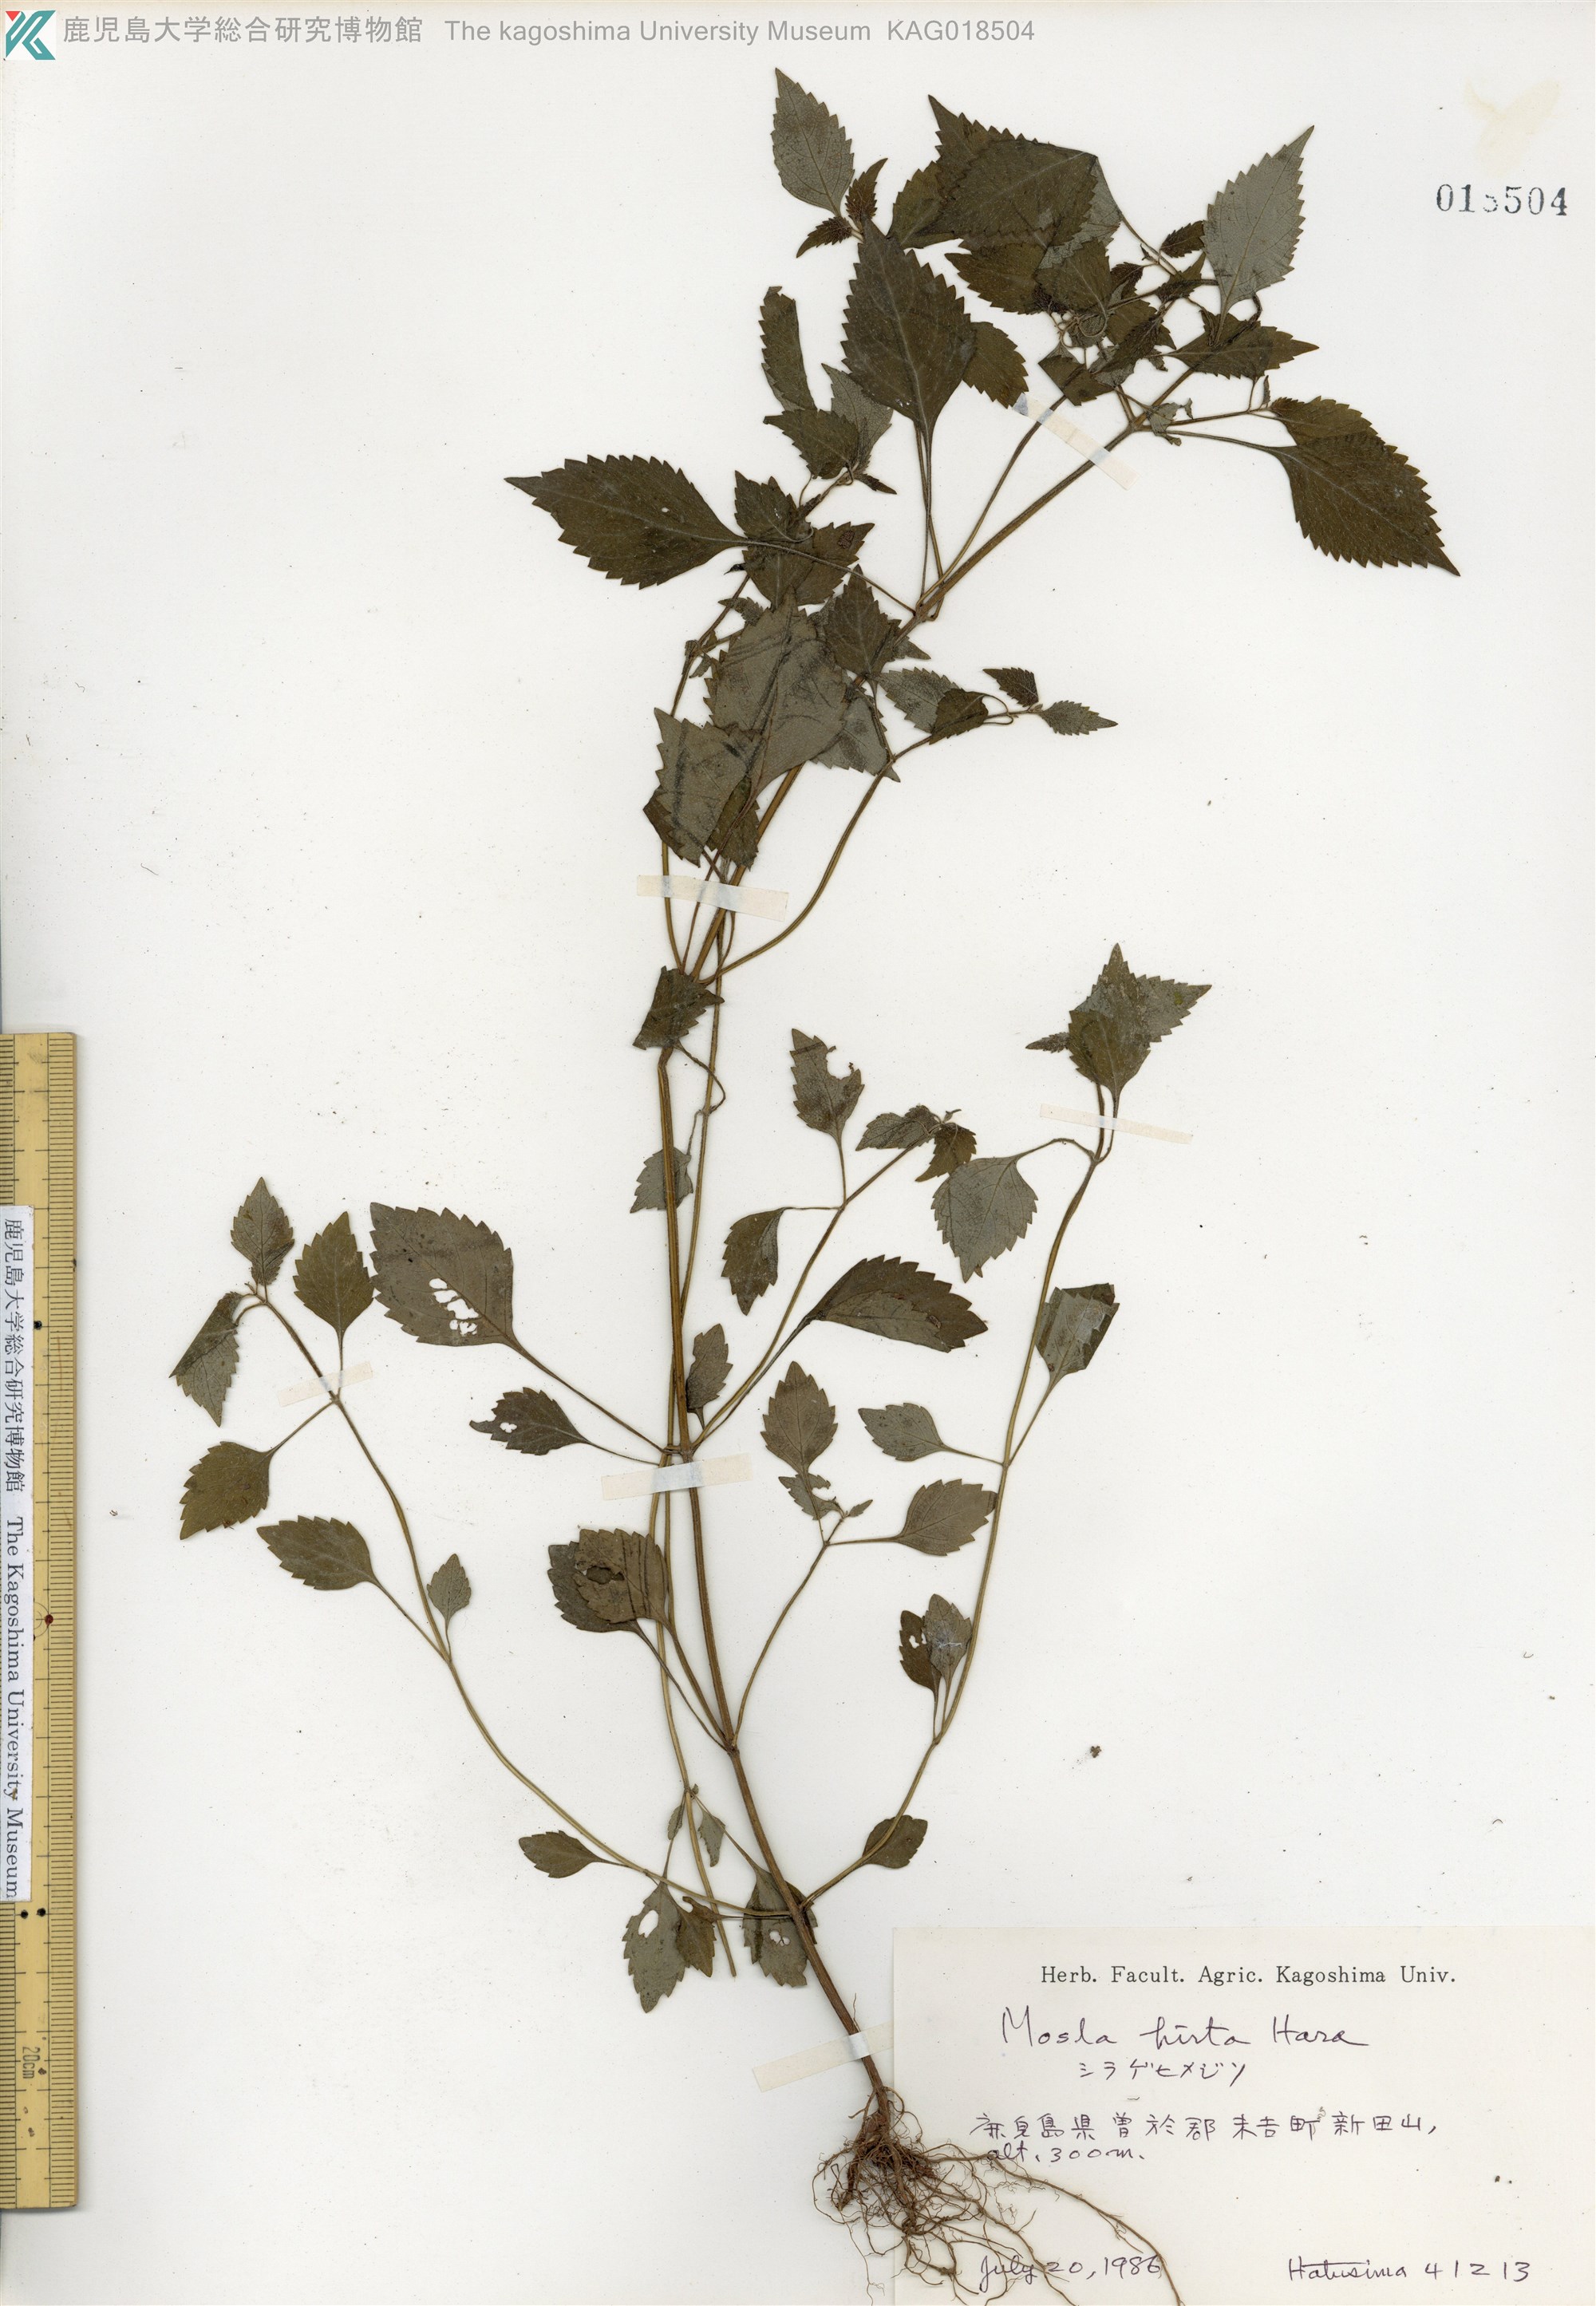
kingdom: Plantae
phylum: Tracheophyta
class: Magnoliopsida
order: Lamiales
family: Lamiaceae
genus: Mosla
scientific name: Mosla dianthera
